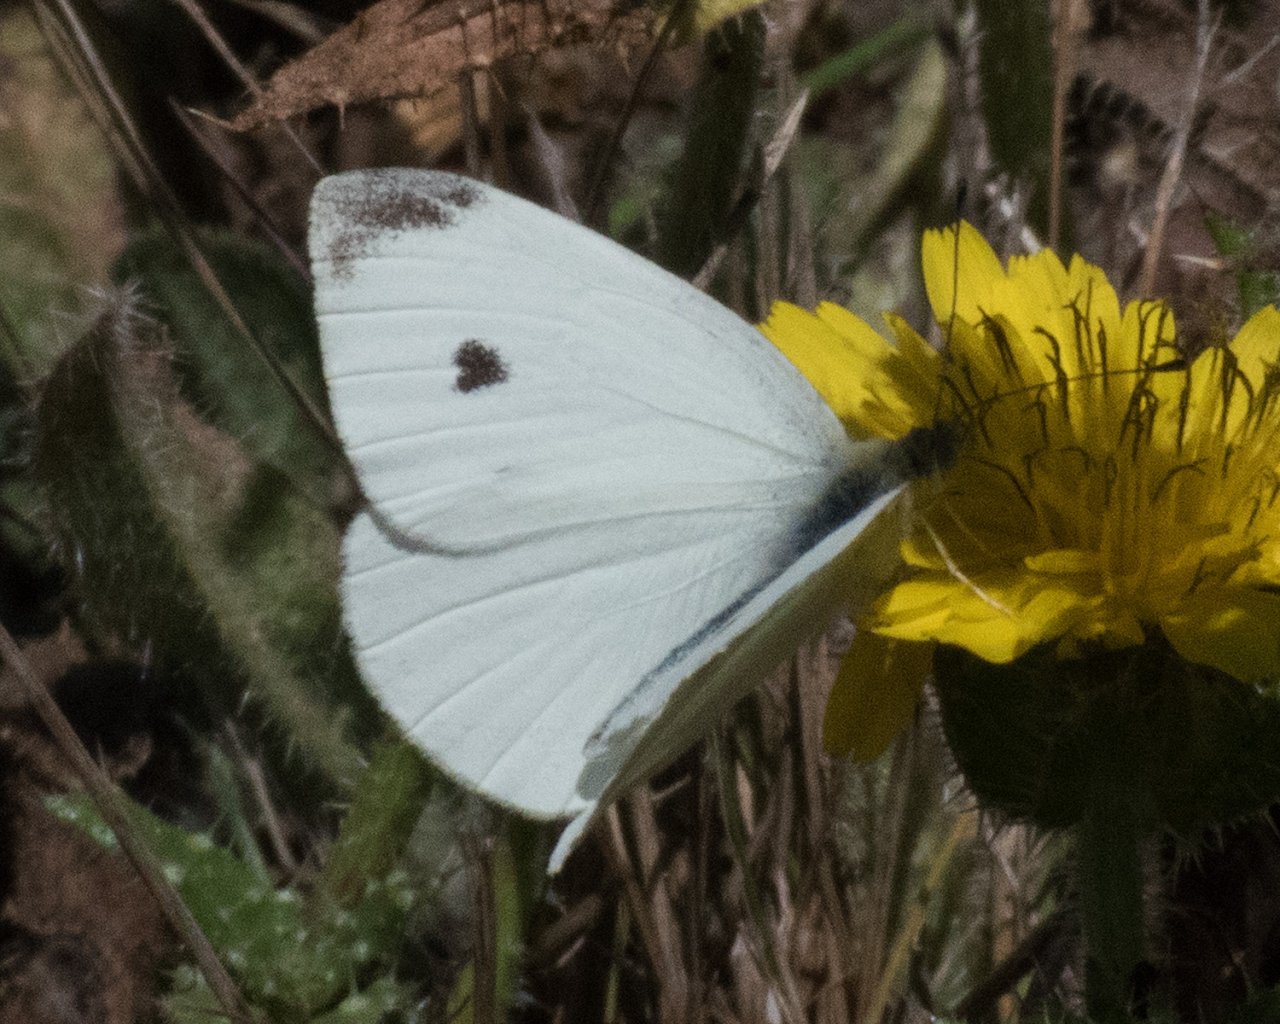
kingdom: Animalia
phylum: Arthropoda
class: Insecta
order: Lepidoptera
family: Pieridae
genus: Pieris
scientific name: Pieris rapae
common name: Cabbage White
